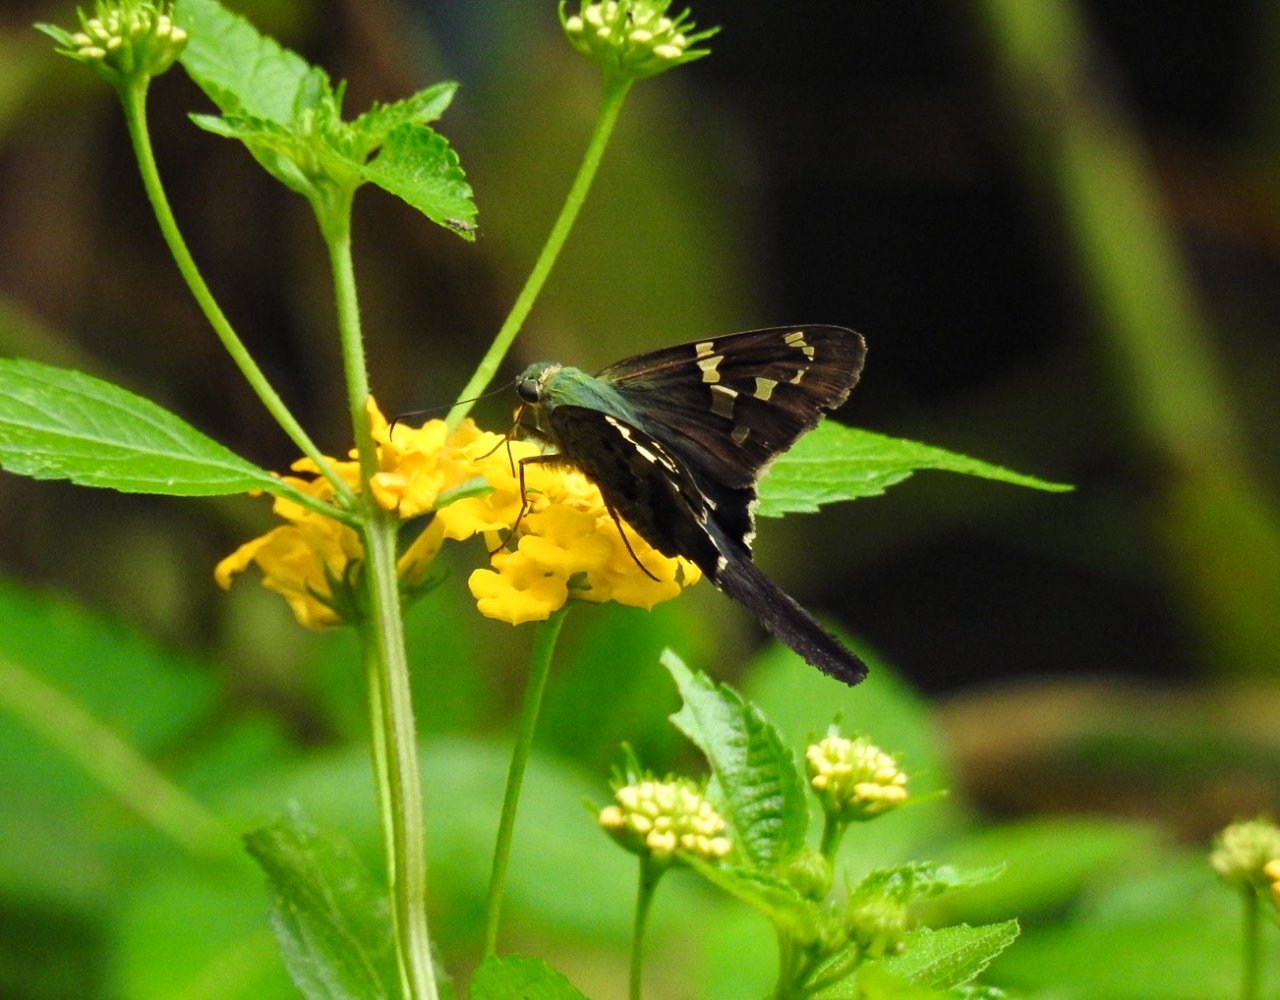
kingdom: Animalia
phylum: Arthropoda
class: Insecta
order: Lepidoptera
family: Hesperiidae
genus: Urbanus
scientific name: Urbanus proteus
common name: Long-tailed Skipper
